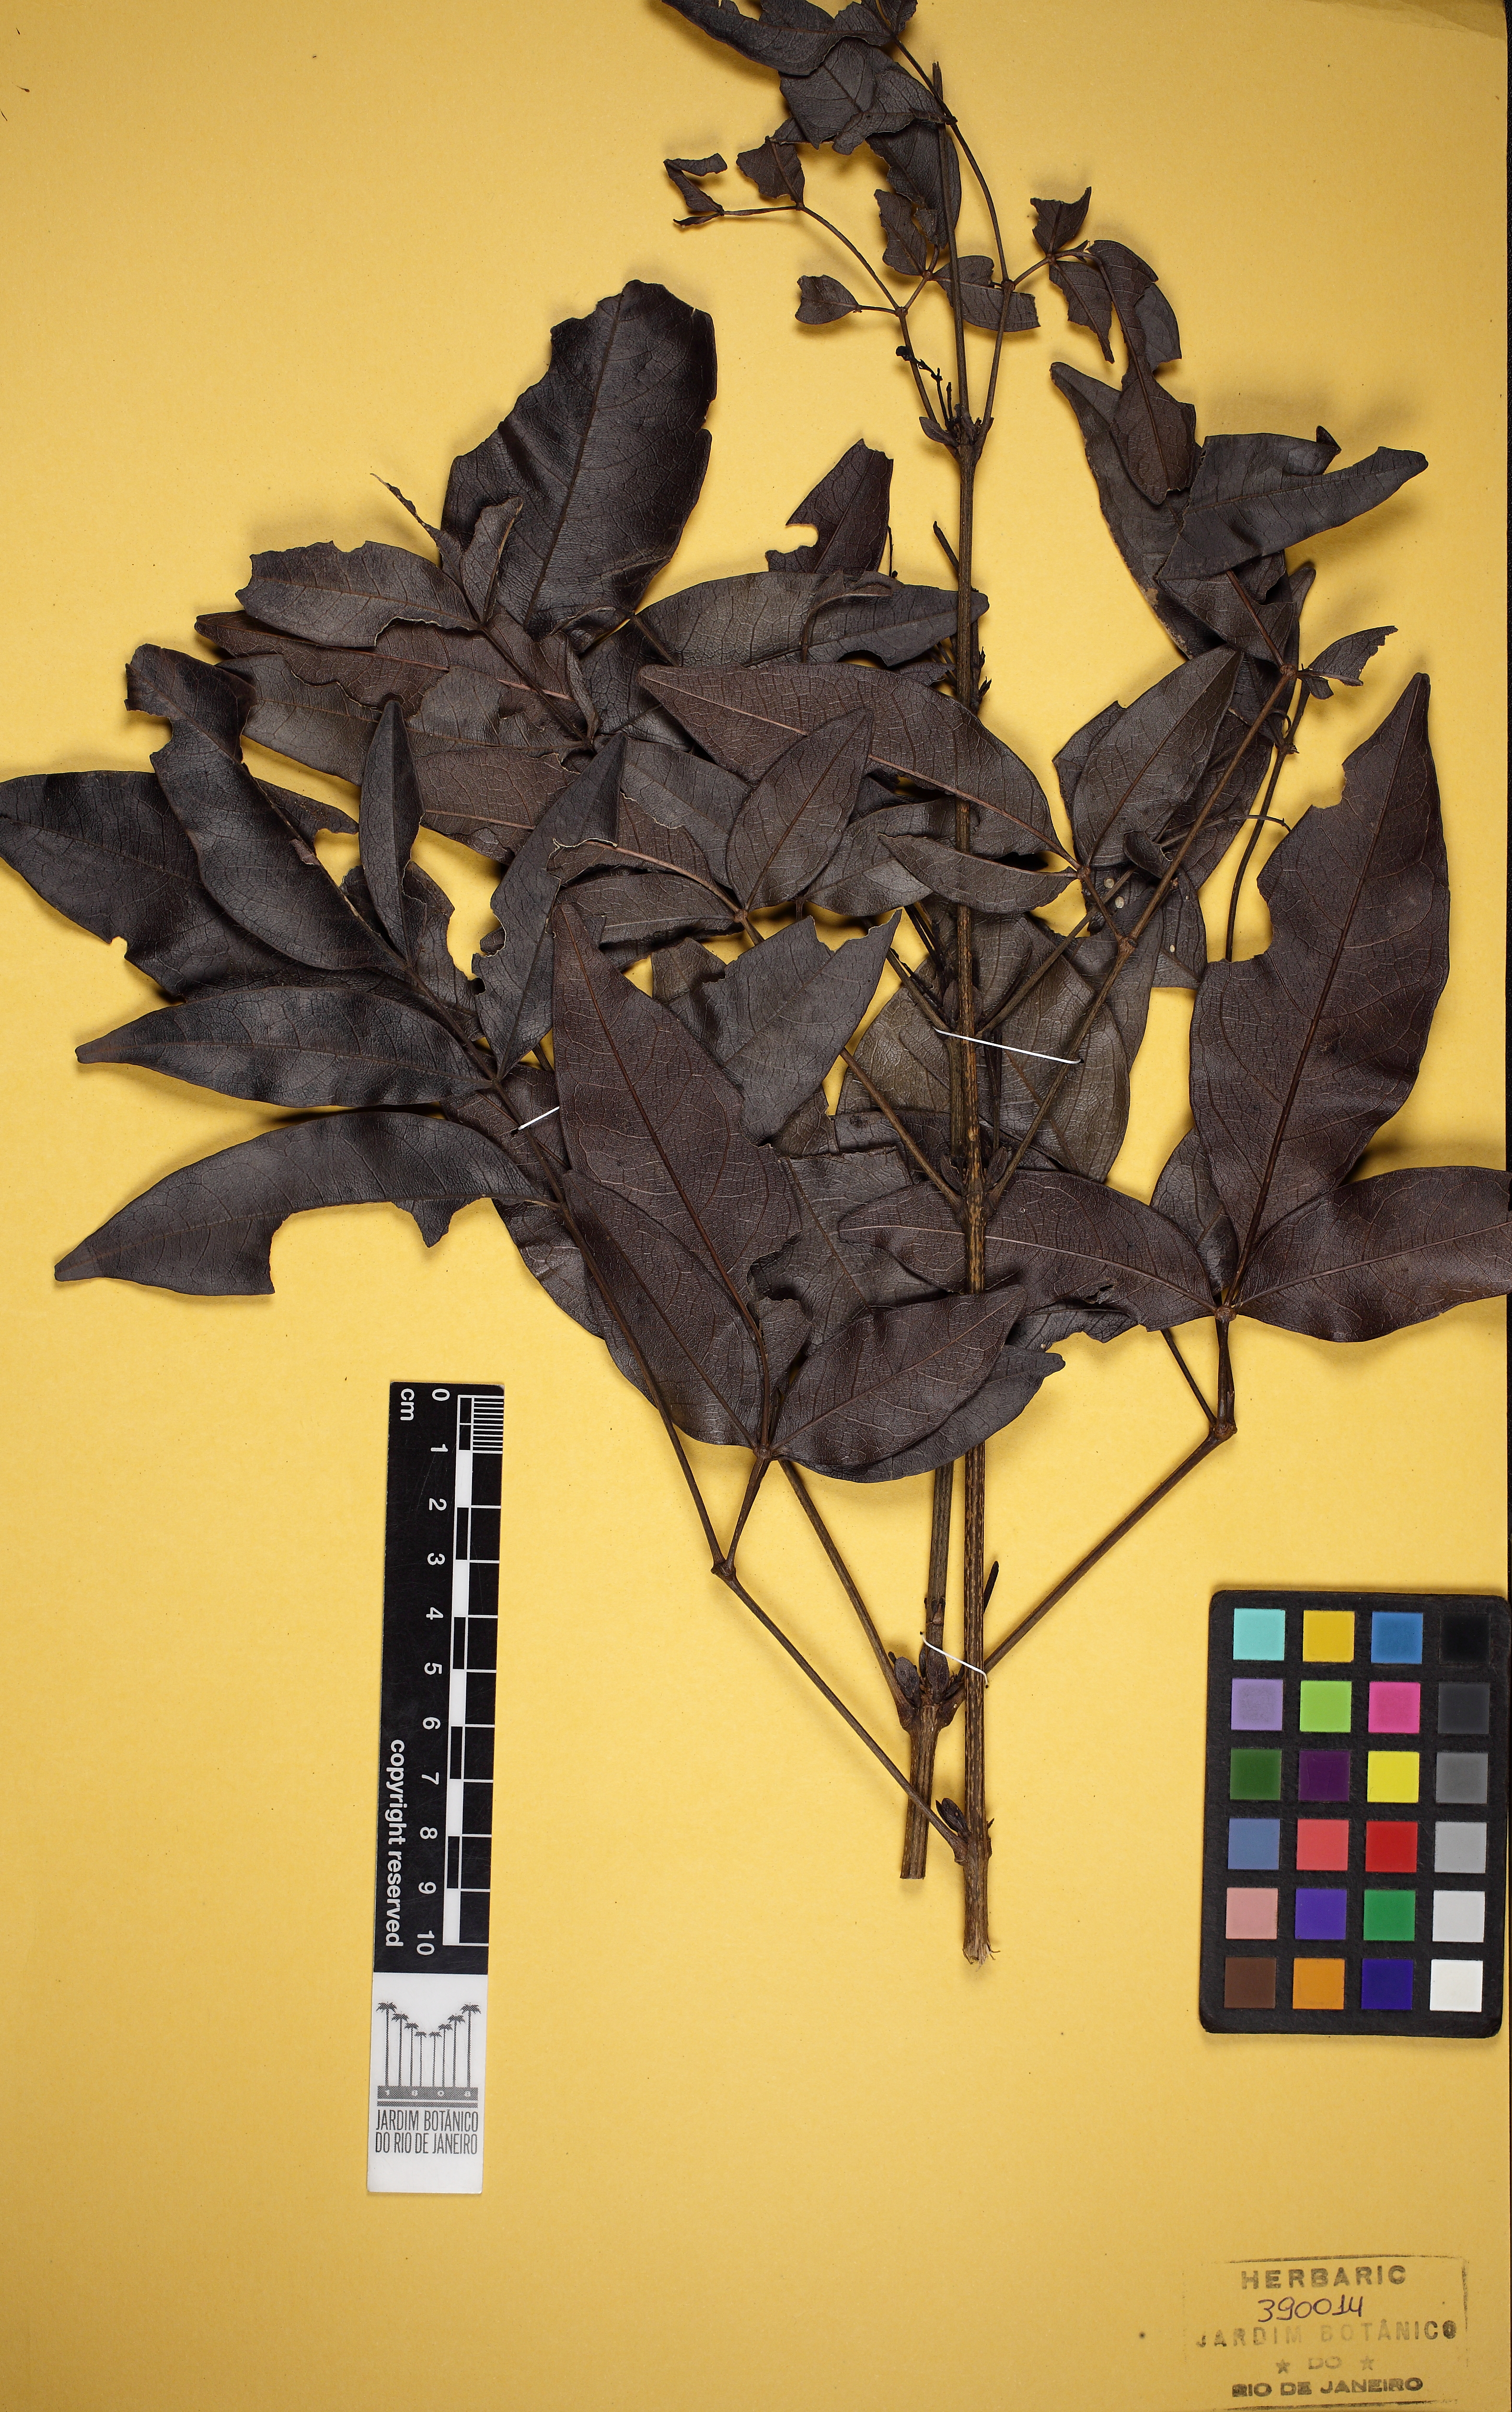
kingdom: Plantae
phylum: Tracheophyta
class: Magnoliopsida
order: Lamiales
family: Bignoniaceae
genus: Adenocalymma
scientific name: Adenocalymma
